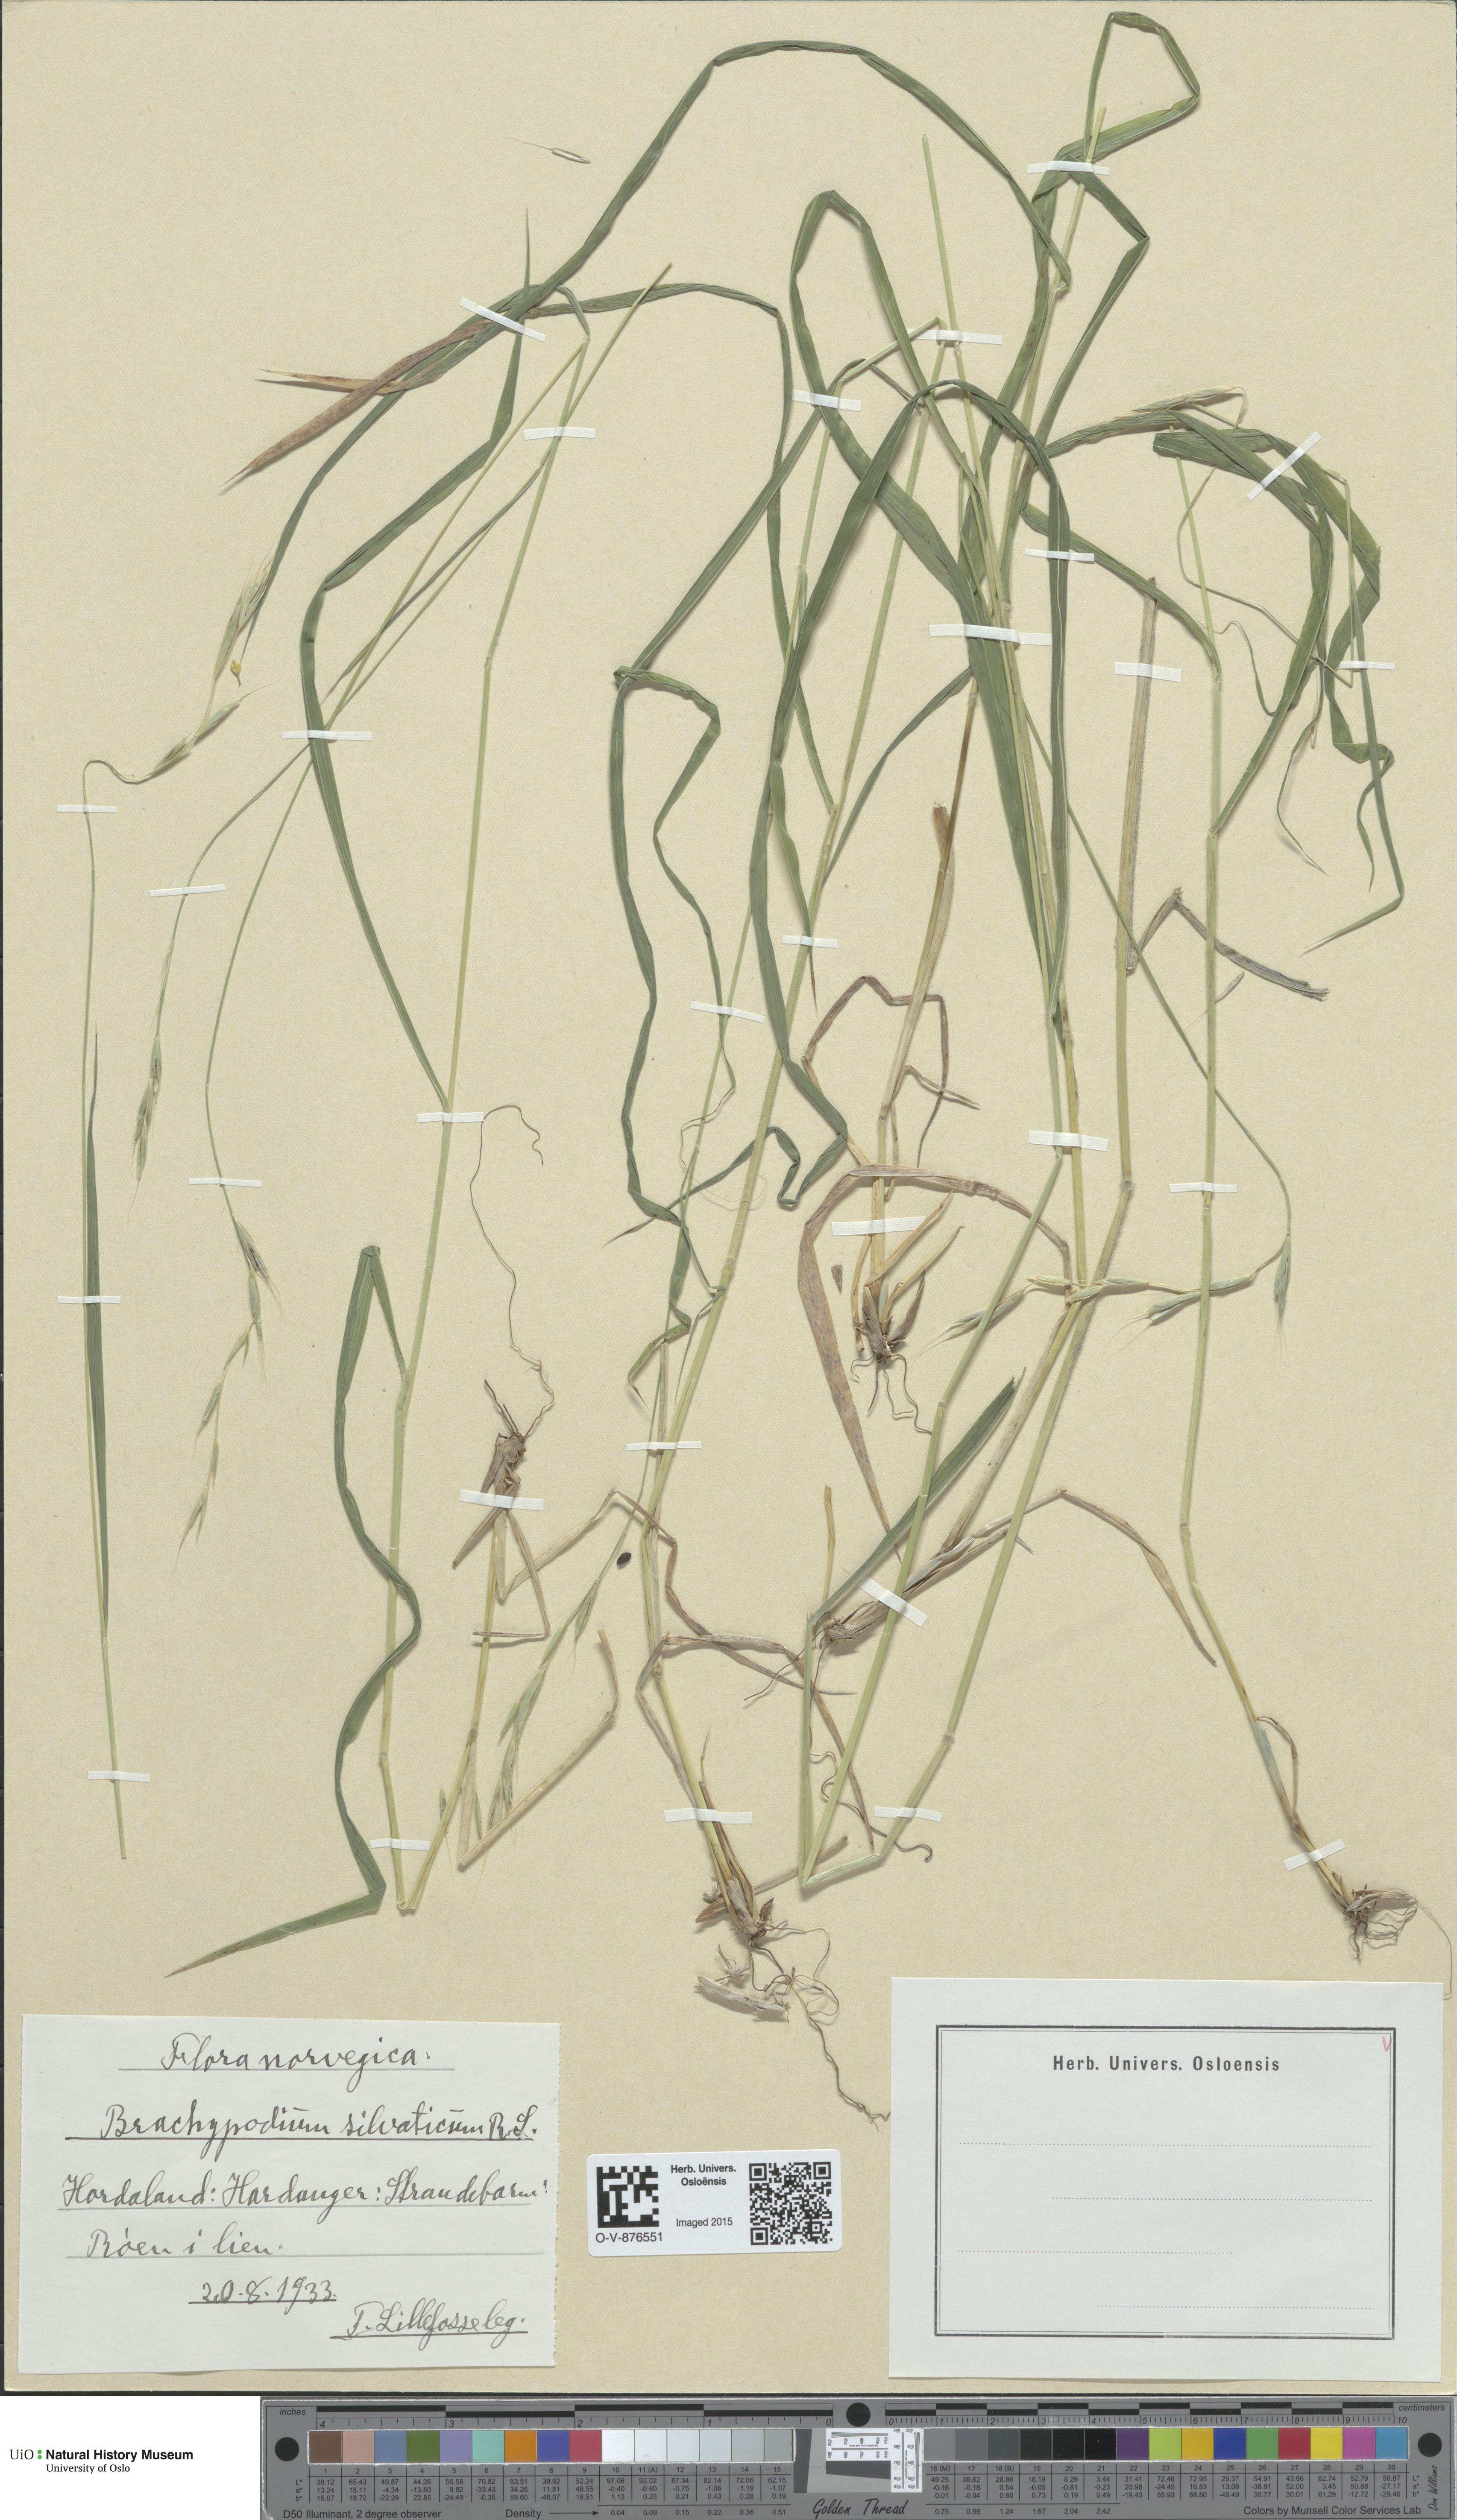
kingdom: Plantae
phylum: Tracheophyta
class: Liliopsida
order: Poales
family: Poaceae
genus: Brachypodium
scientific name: Brachypodium sylvaticum
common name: False-brome
